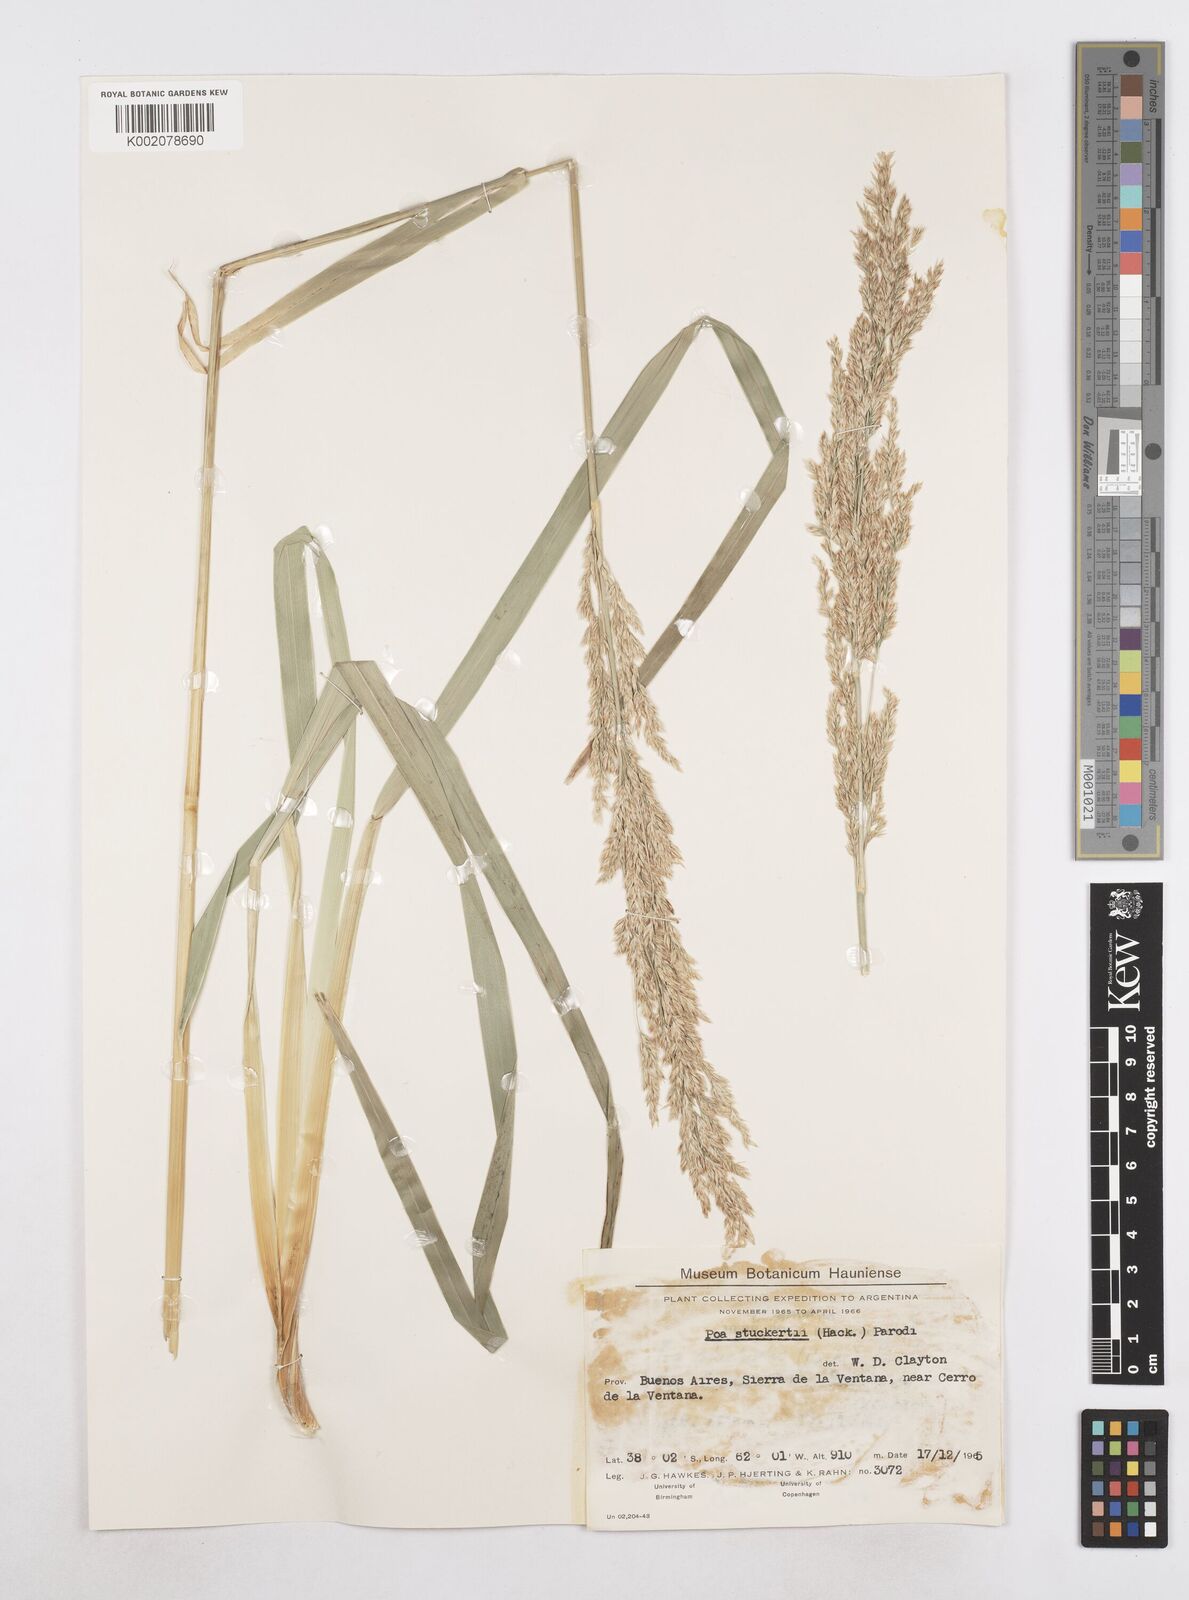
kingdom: Plantae
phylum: Tracheophyta
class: Liliopsida
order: Poales
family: Poaceae
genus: Poa
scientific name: Poa stuckertii
